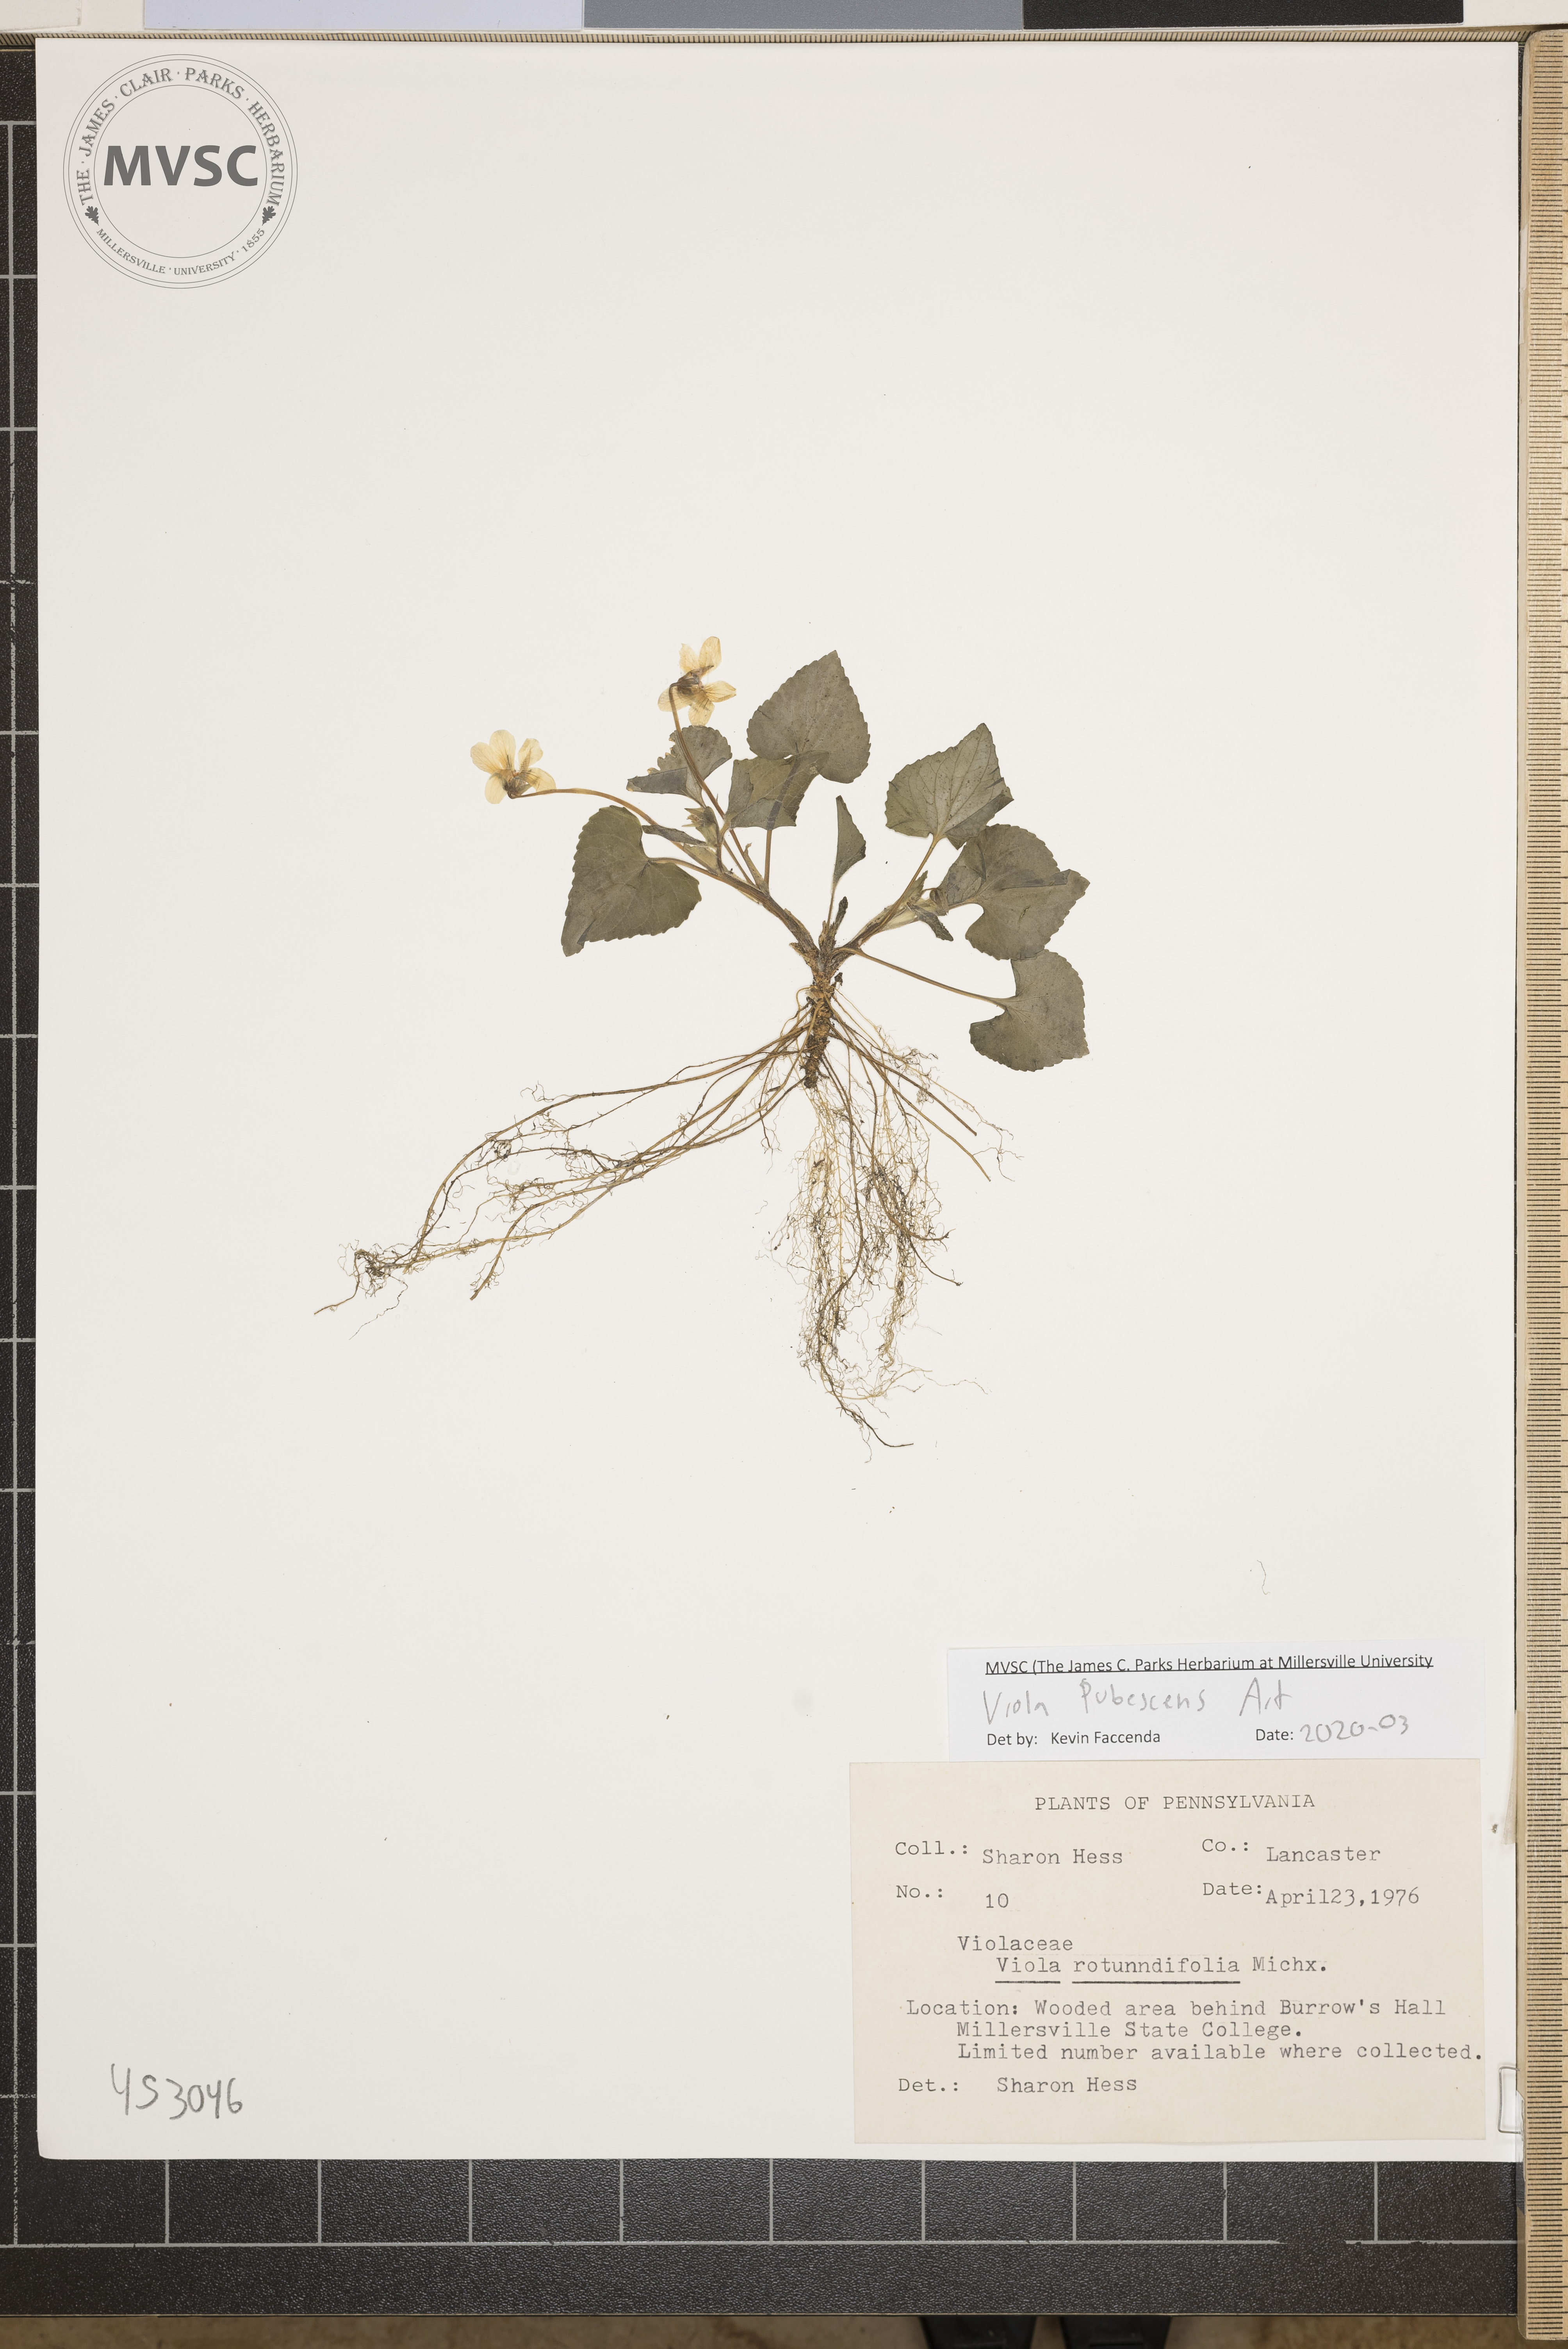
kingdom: Plantae
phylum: Tracheophyta
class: Magnoliopsida
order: Malpighiales
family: Violaceae
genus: Viola
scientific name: Viola pubescens
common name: Yellow forest violet
